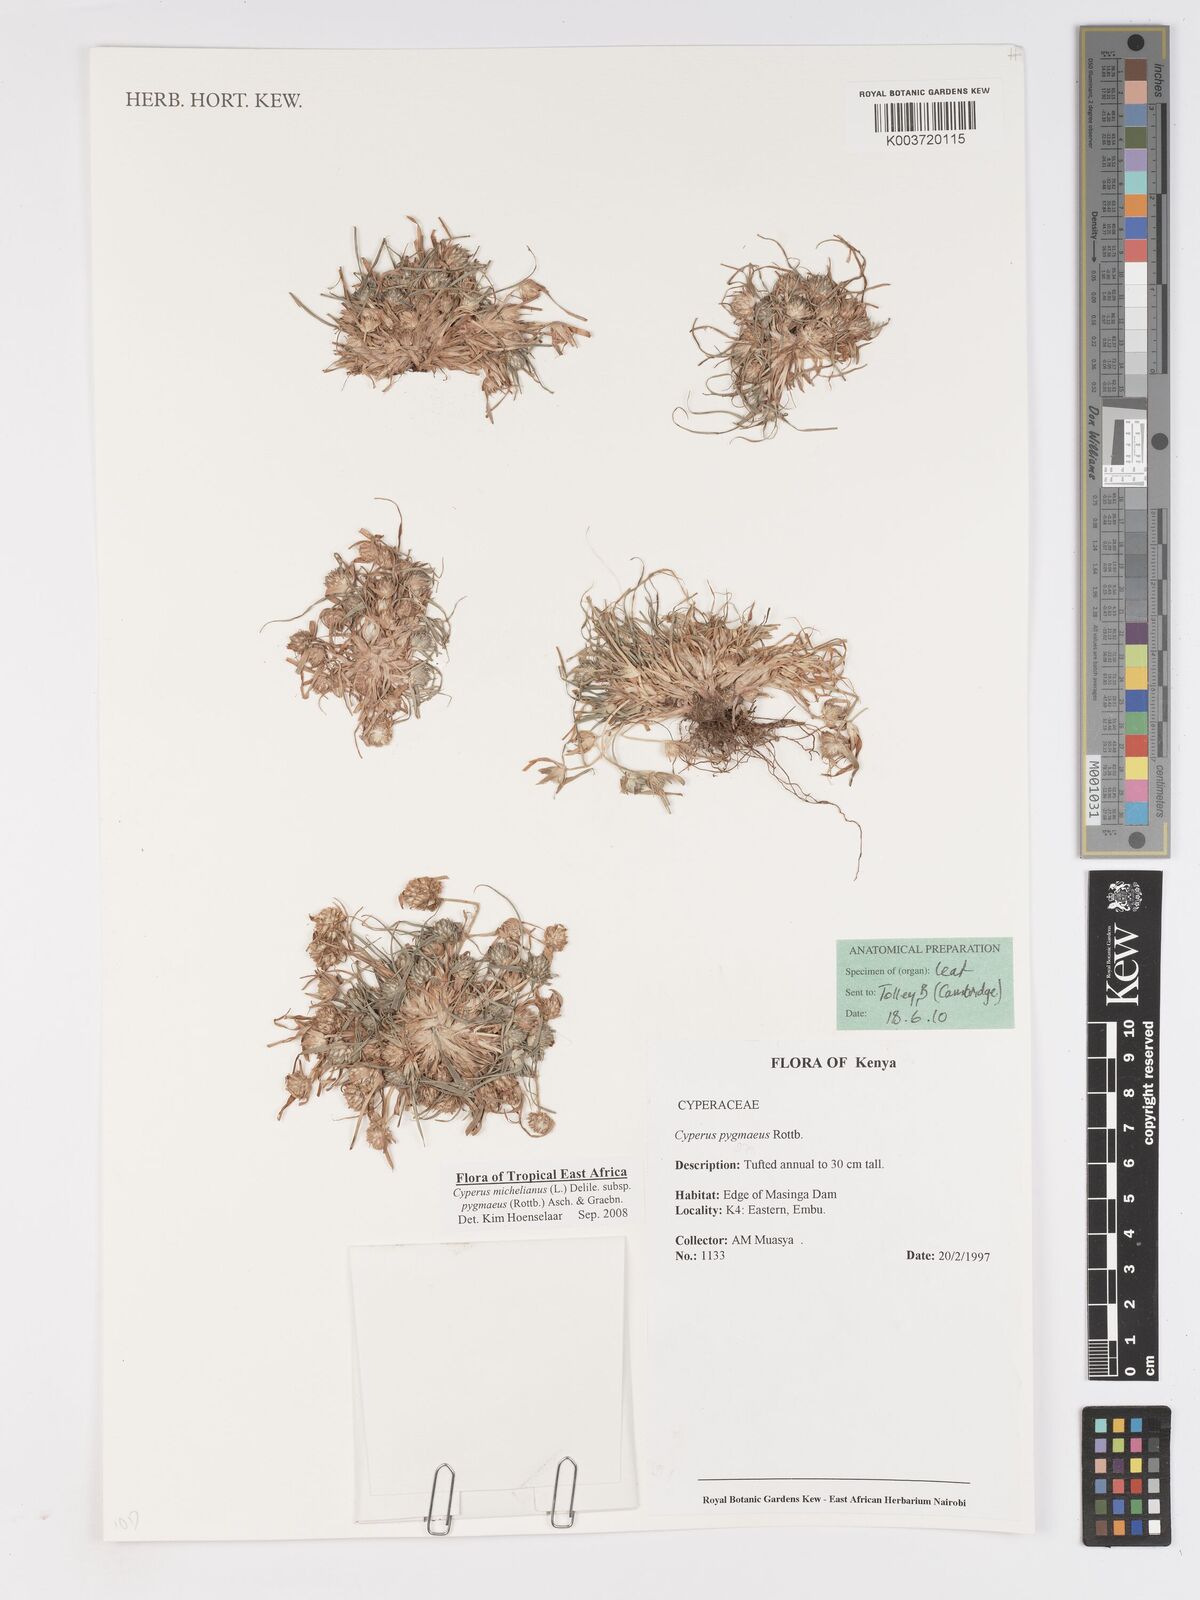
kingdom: Plantae
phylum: Tracheophyta
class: Liliopsida
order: Poales
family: Cyperaceae
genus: Cyperus
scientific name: Cyperus michelianus
